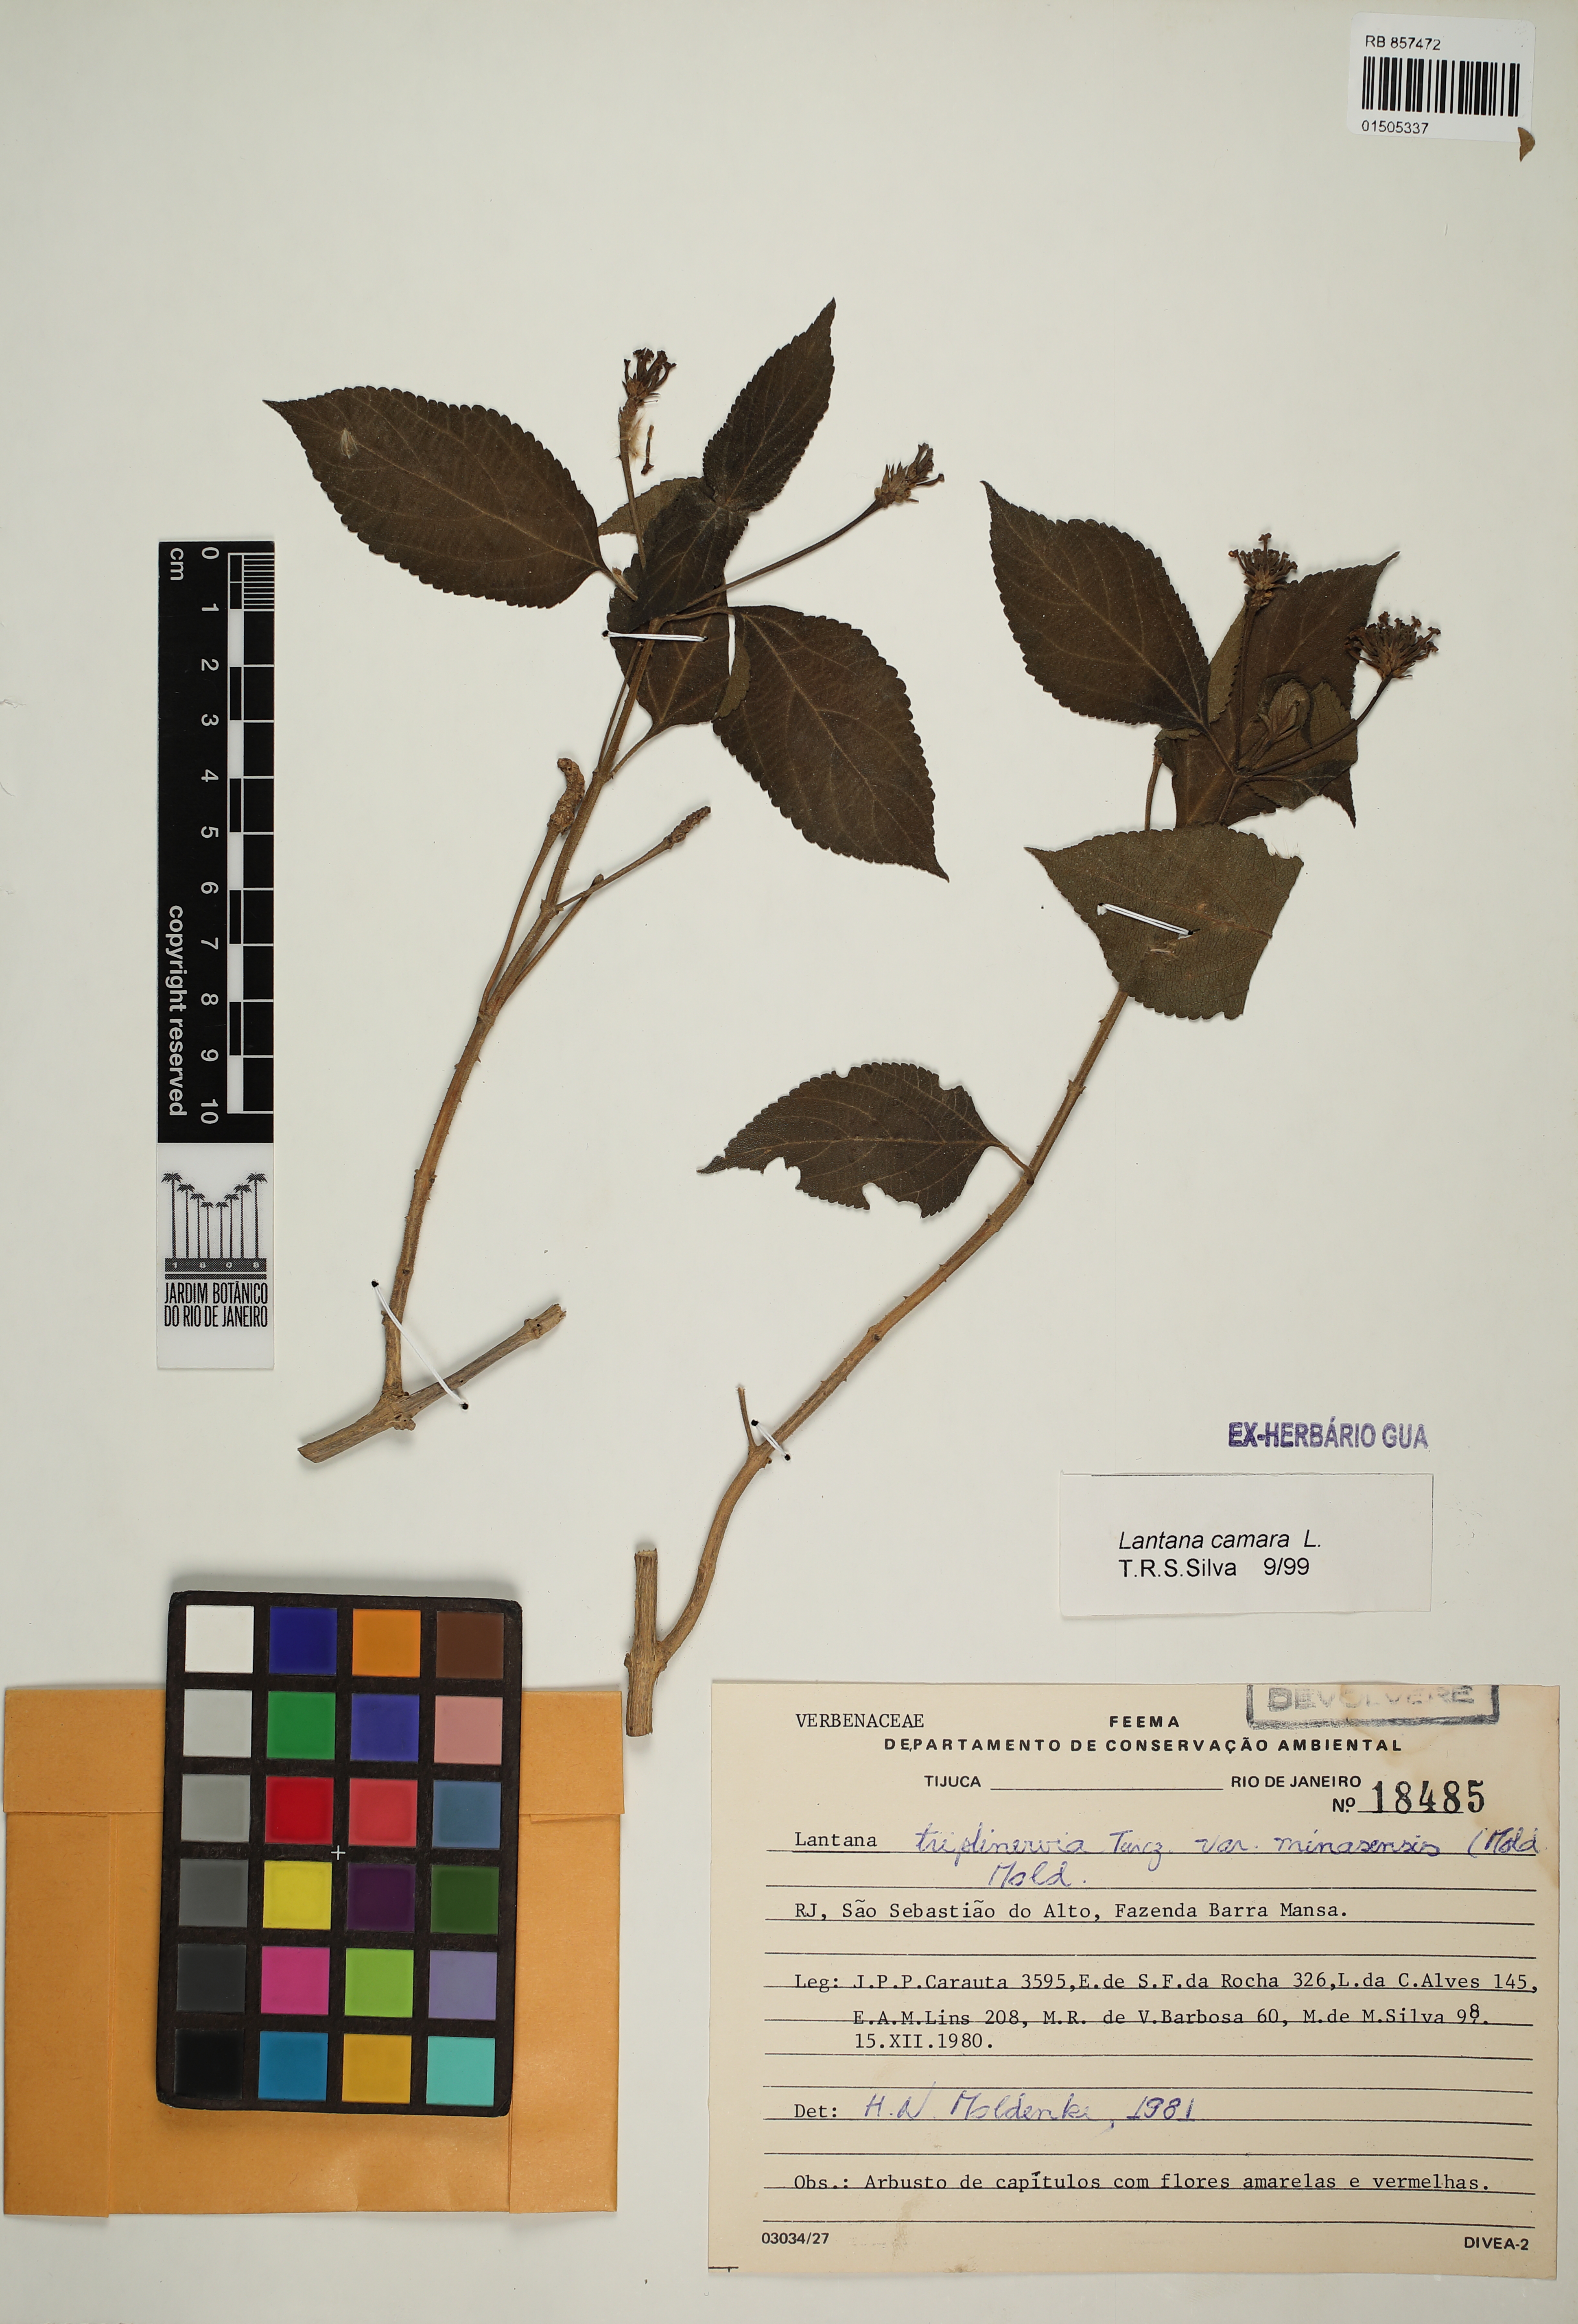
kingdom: Plantae
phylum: Tracheophyta
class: Magnoliopsida
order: Lamiales
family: Verbenaceae
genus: Lantana
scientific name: Lantana camara
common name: Lantana
